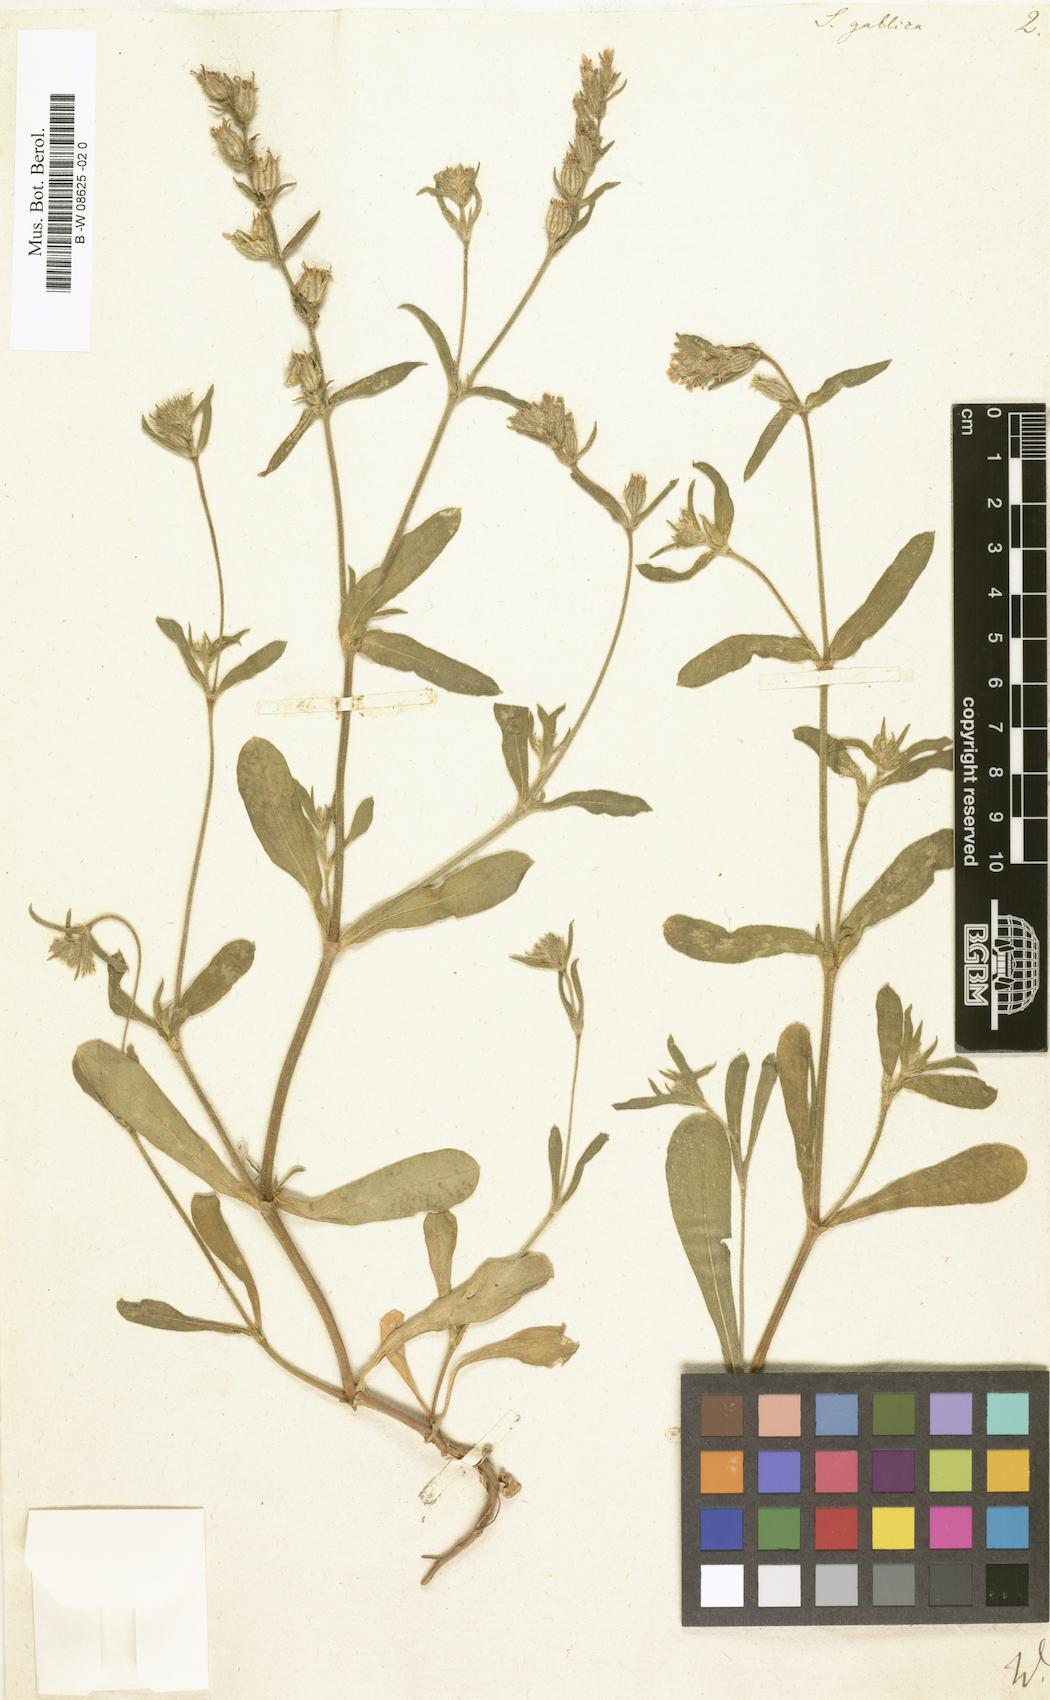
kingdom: Plantae
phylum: Tracheophyta
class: Magnoliopsida
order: Caryophyllales
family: Caryophyllaceae
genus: Silene
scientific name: Silene gallica
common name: Small-flowered catchfly
